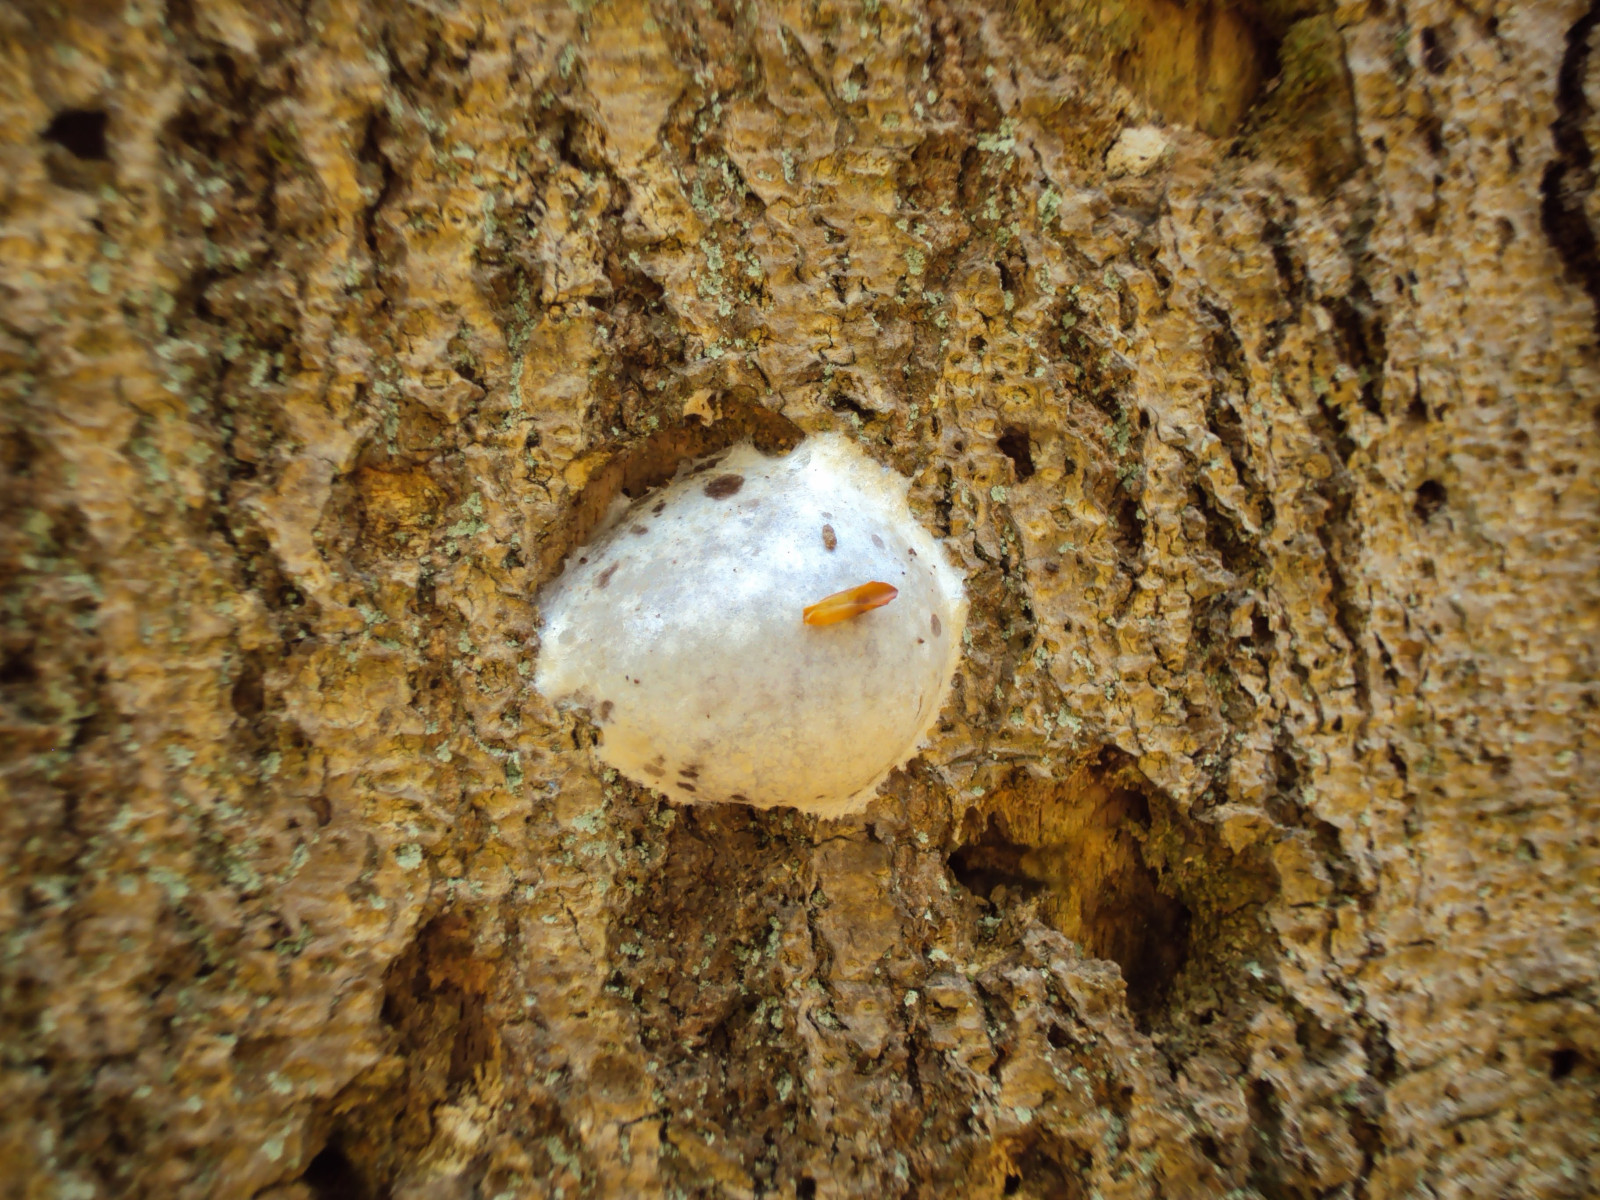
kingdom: Protozoa
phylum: Mycetozoa
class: Myxomycetes
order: Cribrariales
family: Tubiferaceae
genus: Reticularia
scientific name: Reticularia lycoperdon
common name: skinnende støvpude
